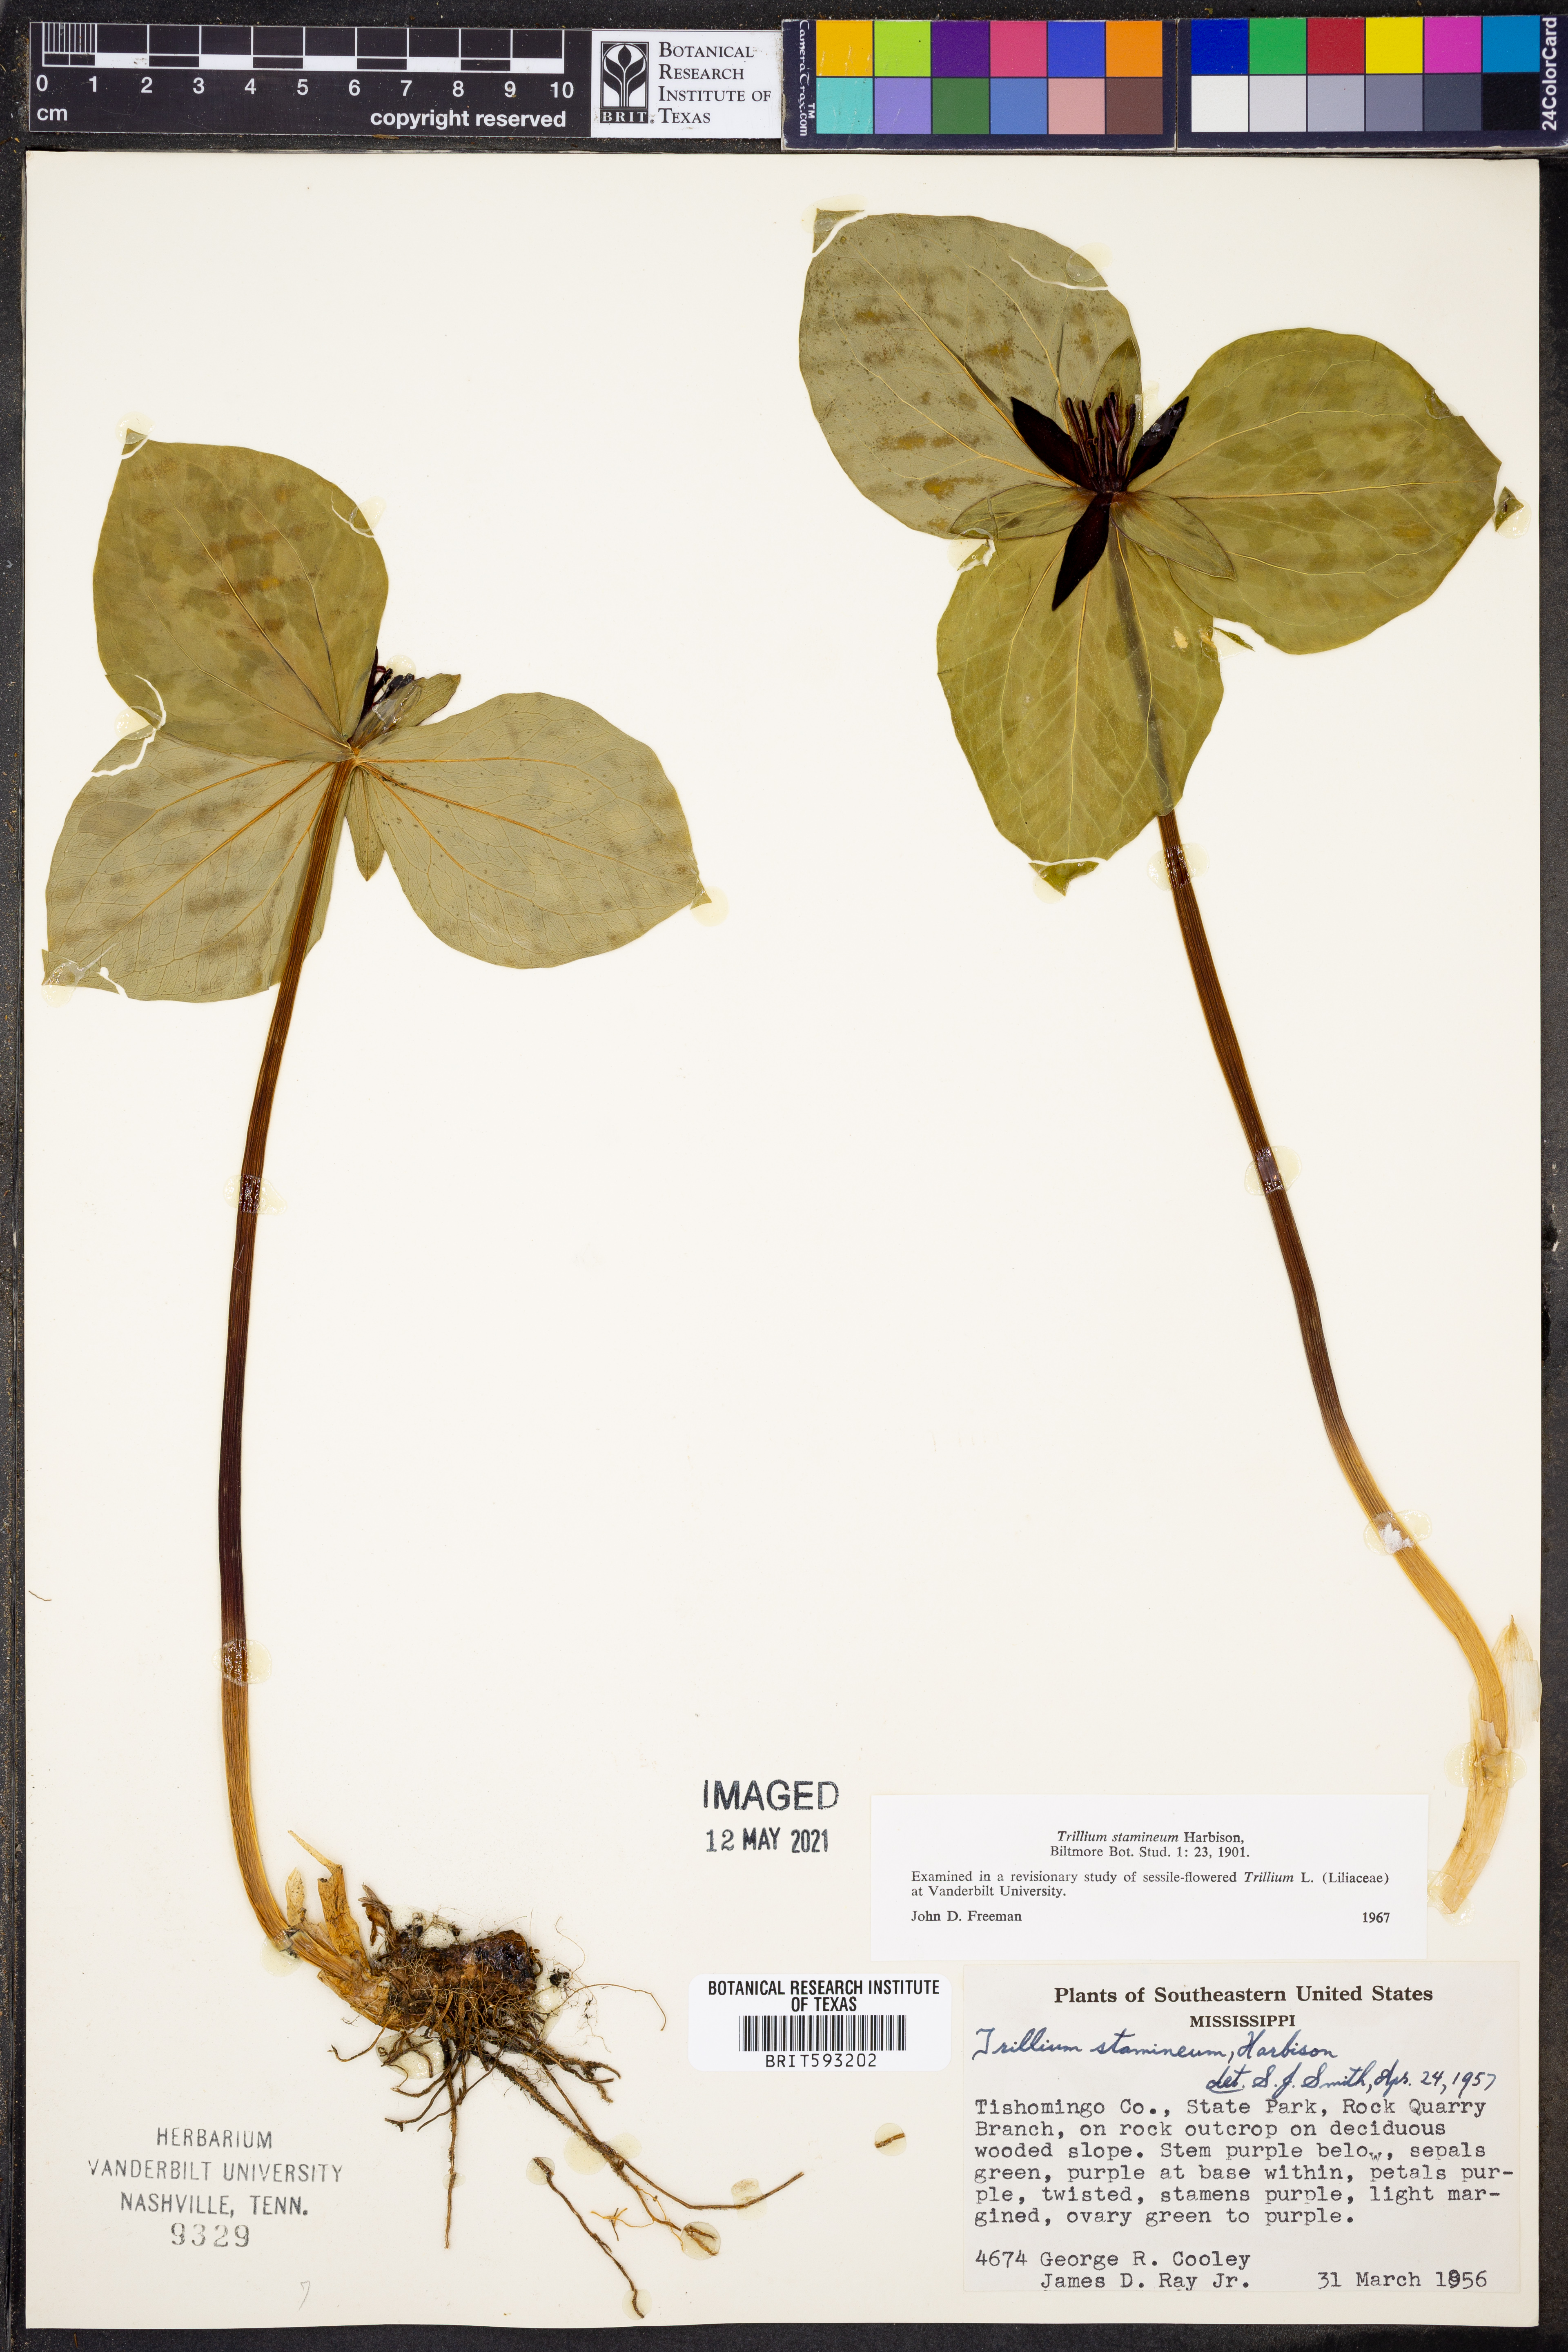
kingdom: Plantae
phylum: Tracheophyta
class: Liliopsida
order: Liliales
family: Melanthiaceae
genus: Trillium
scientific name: Trillium stamineum
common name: Blue ridge wakerobin
